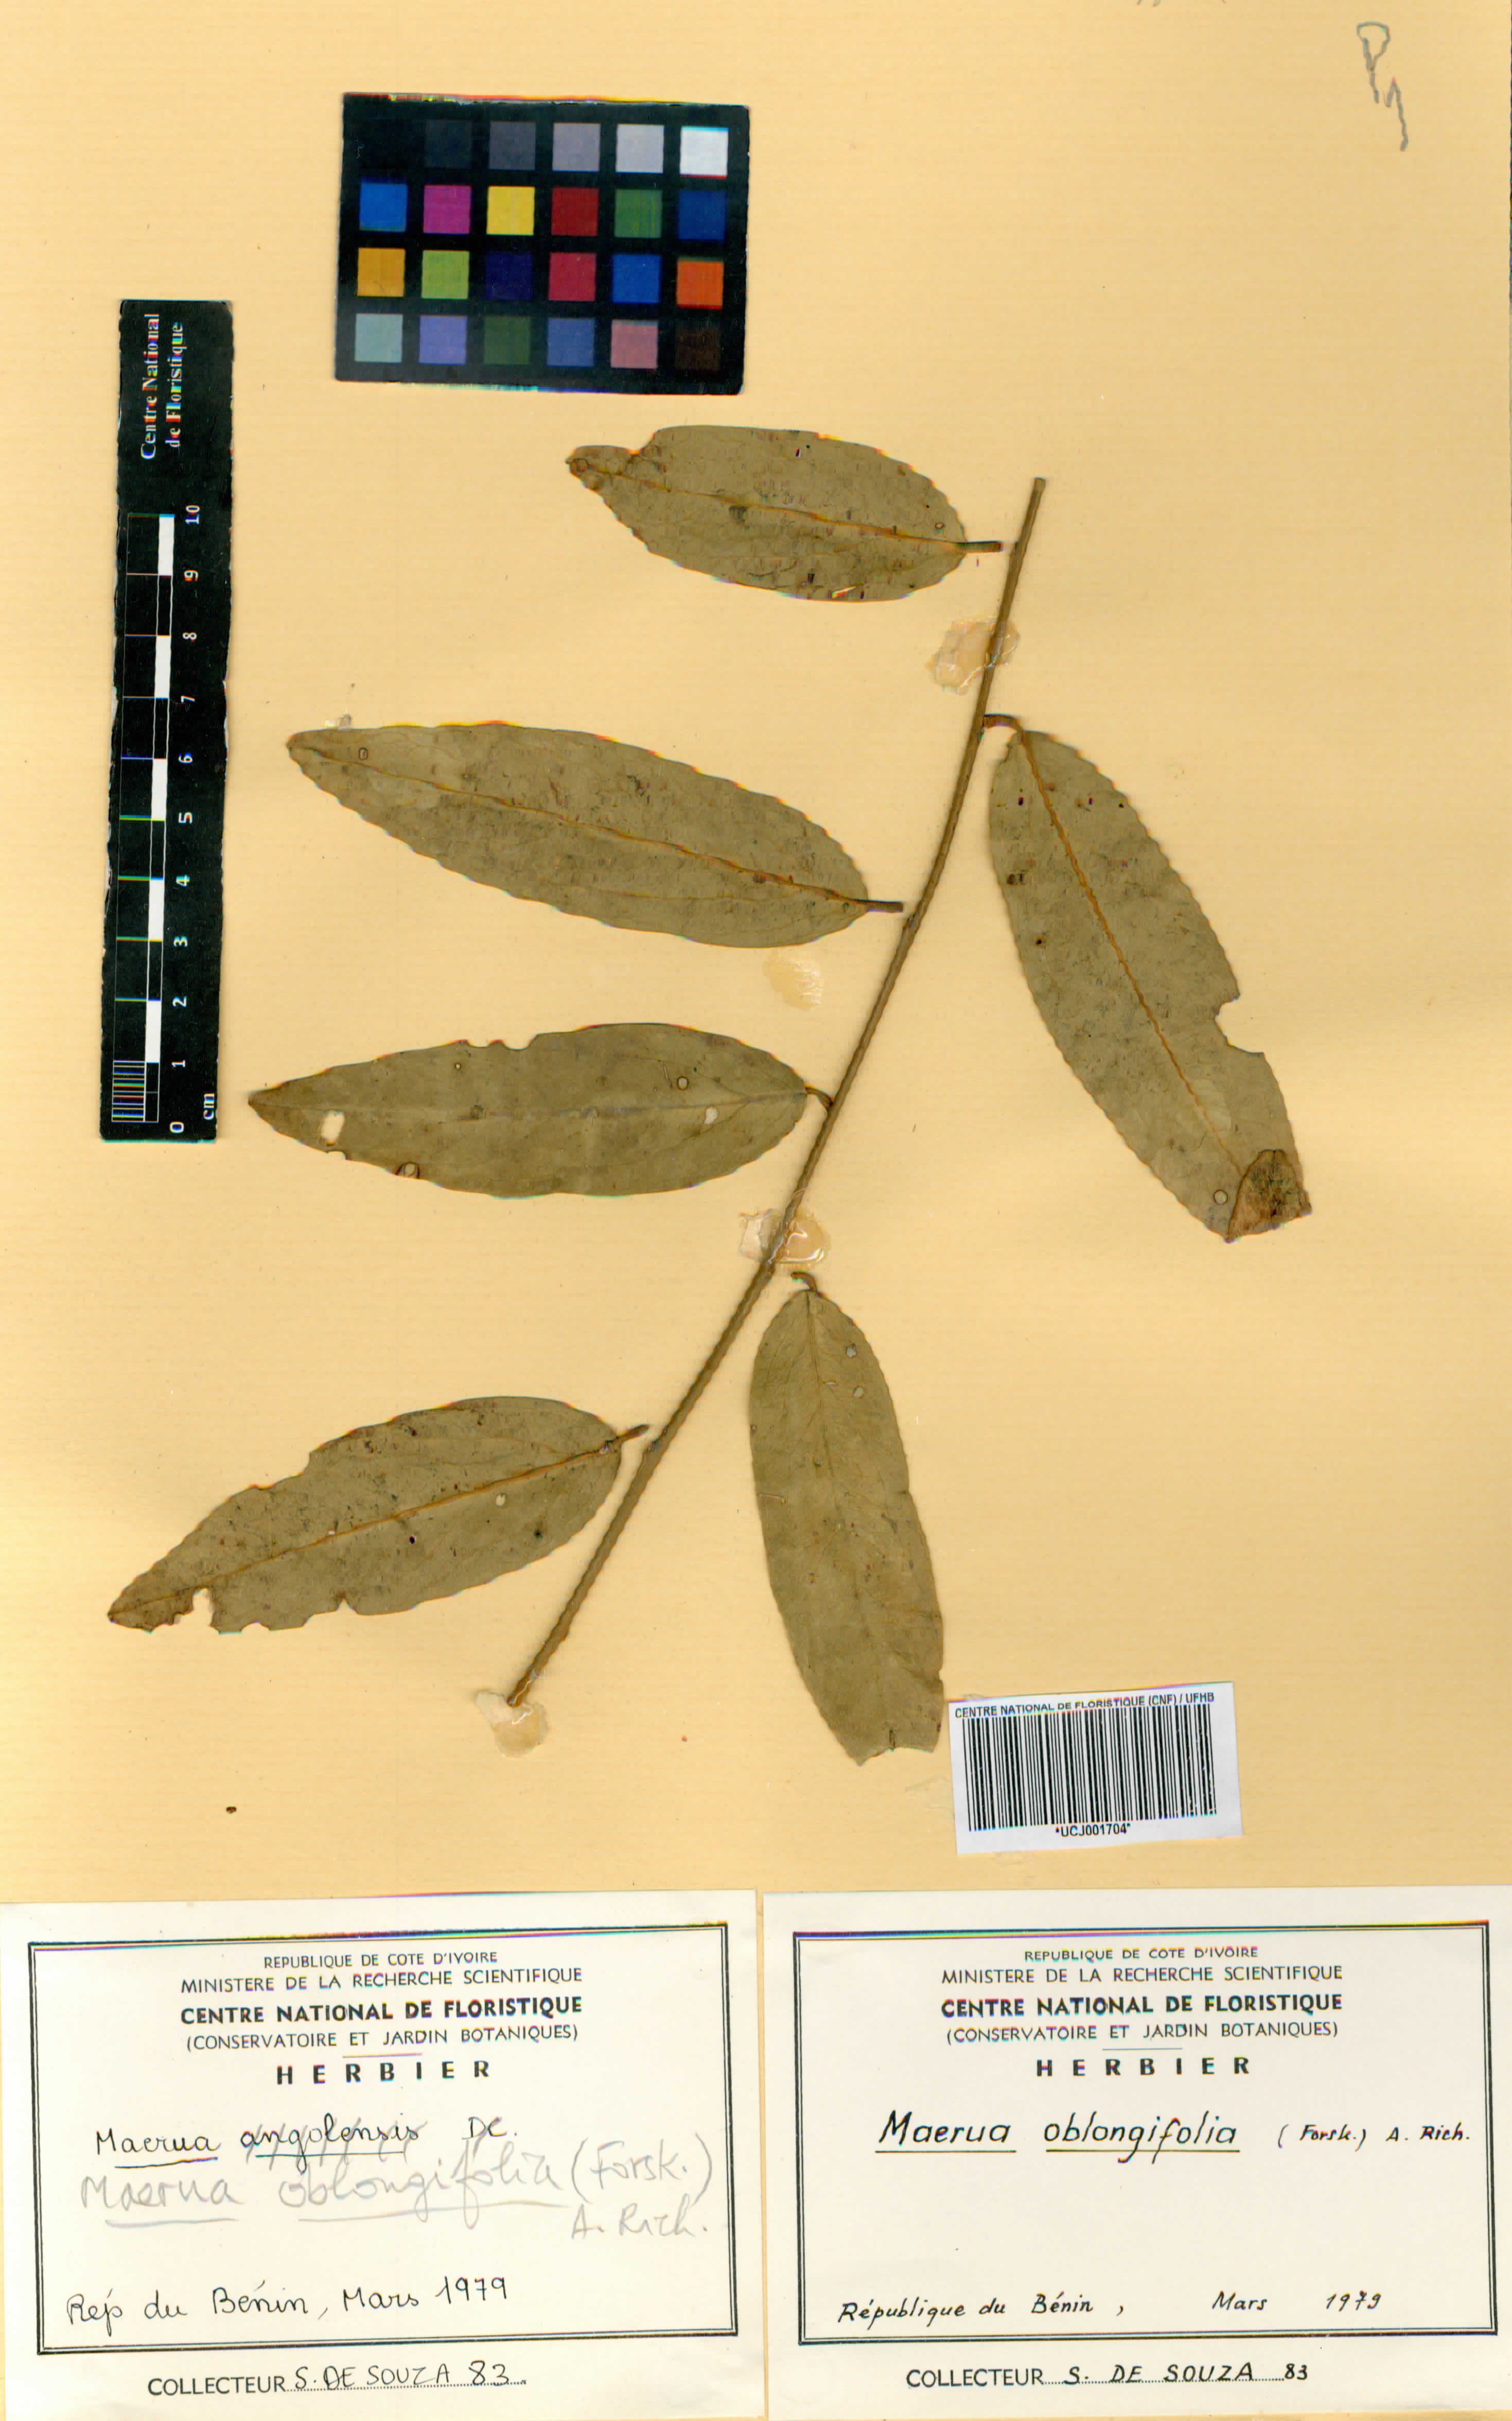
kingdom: Plantae
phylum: Tracheophyta
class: Magnoliopsida
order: Brassicales
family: Capparaceae
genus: Maerua
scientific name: Maerua oblongifolia
